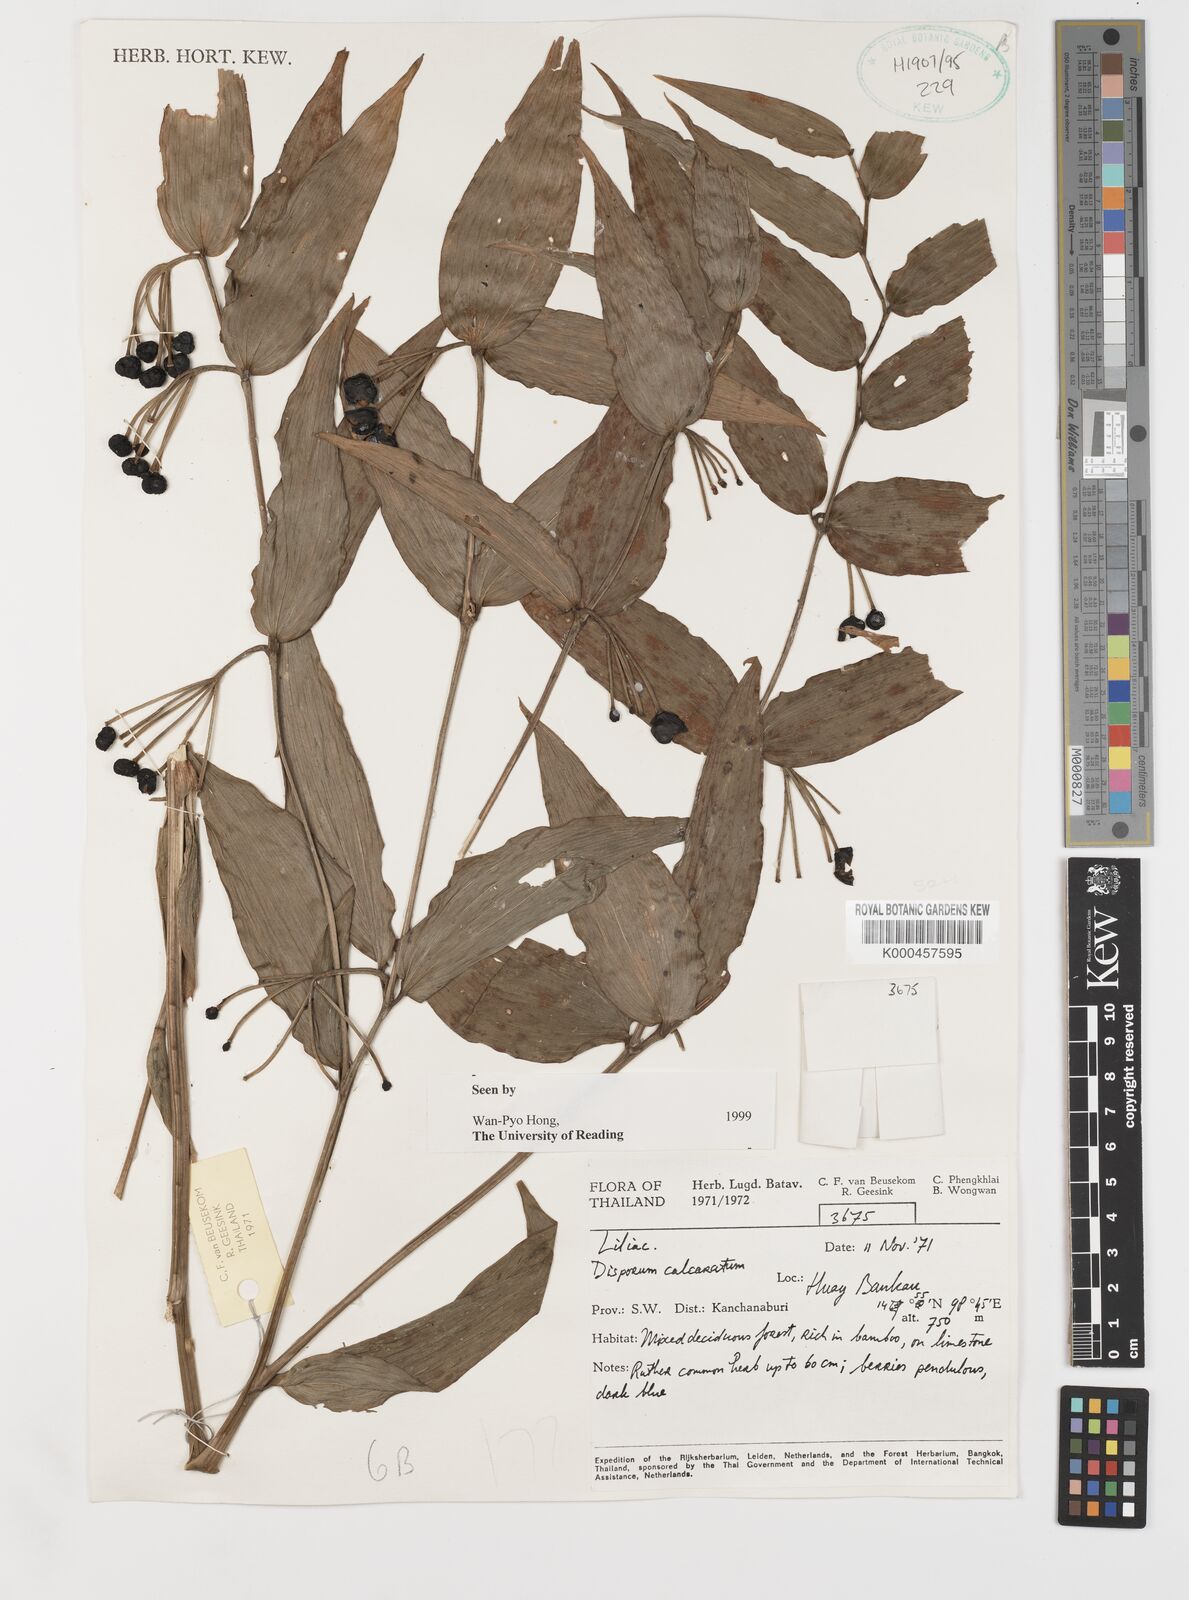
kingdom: Plantae
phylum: Tracheophyta
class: Liliopsida
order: Liliales
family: Colchicaceae
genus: Disporum
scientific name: Disporum calcaratum
